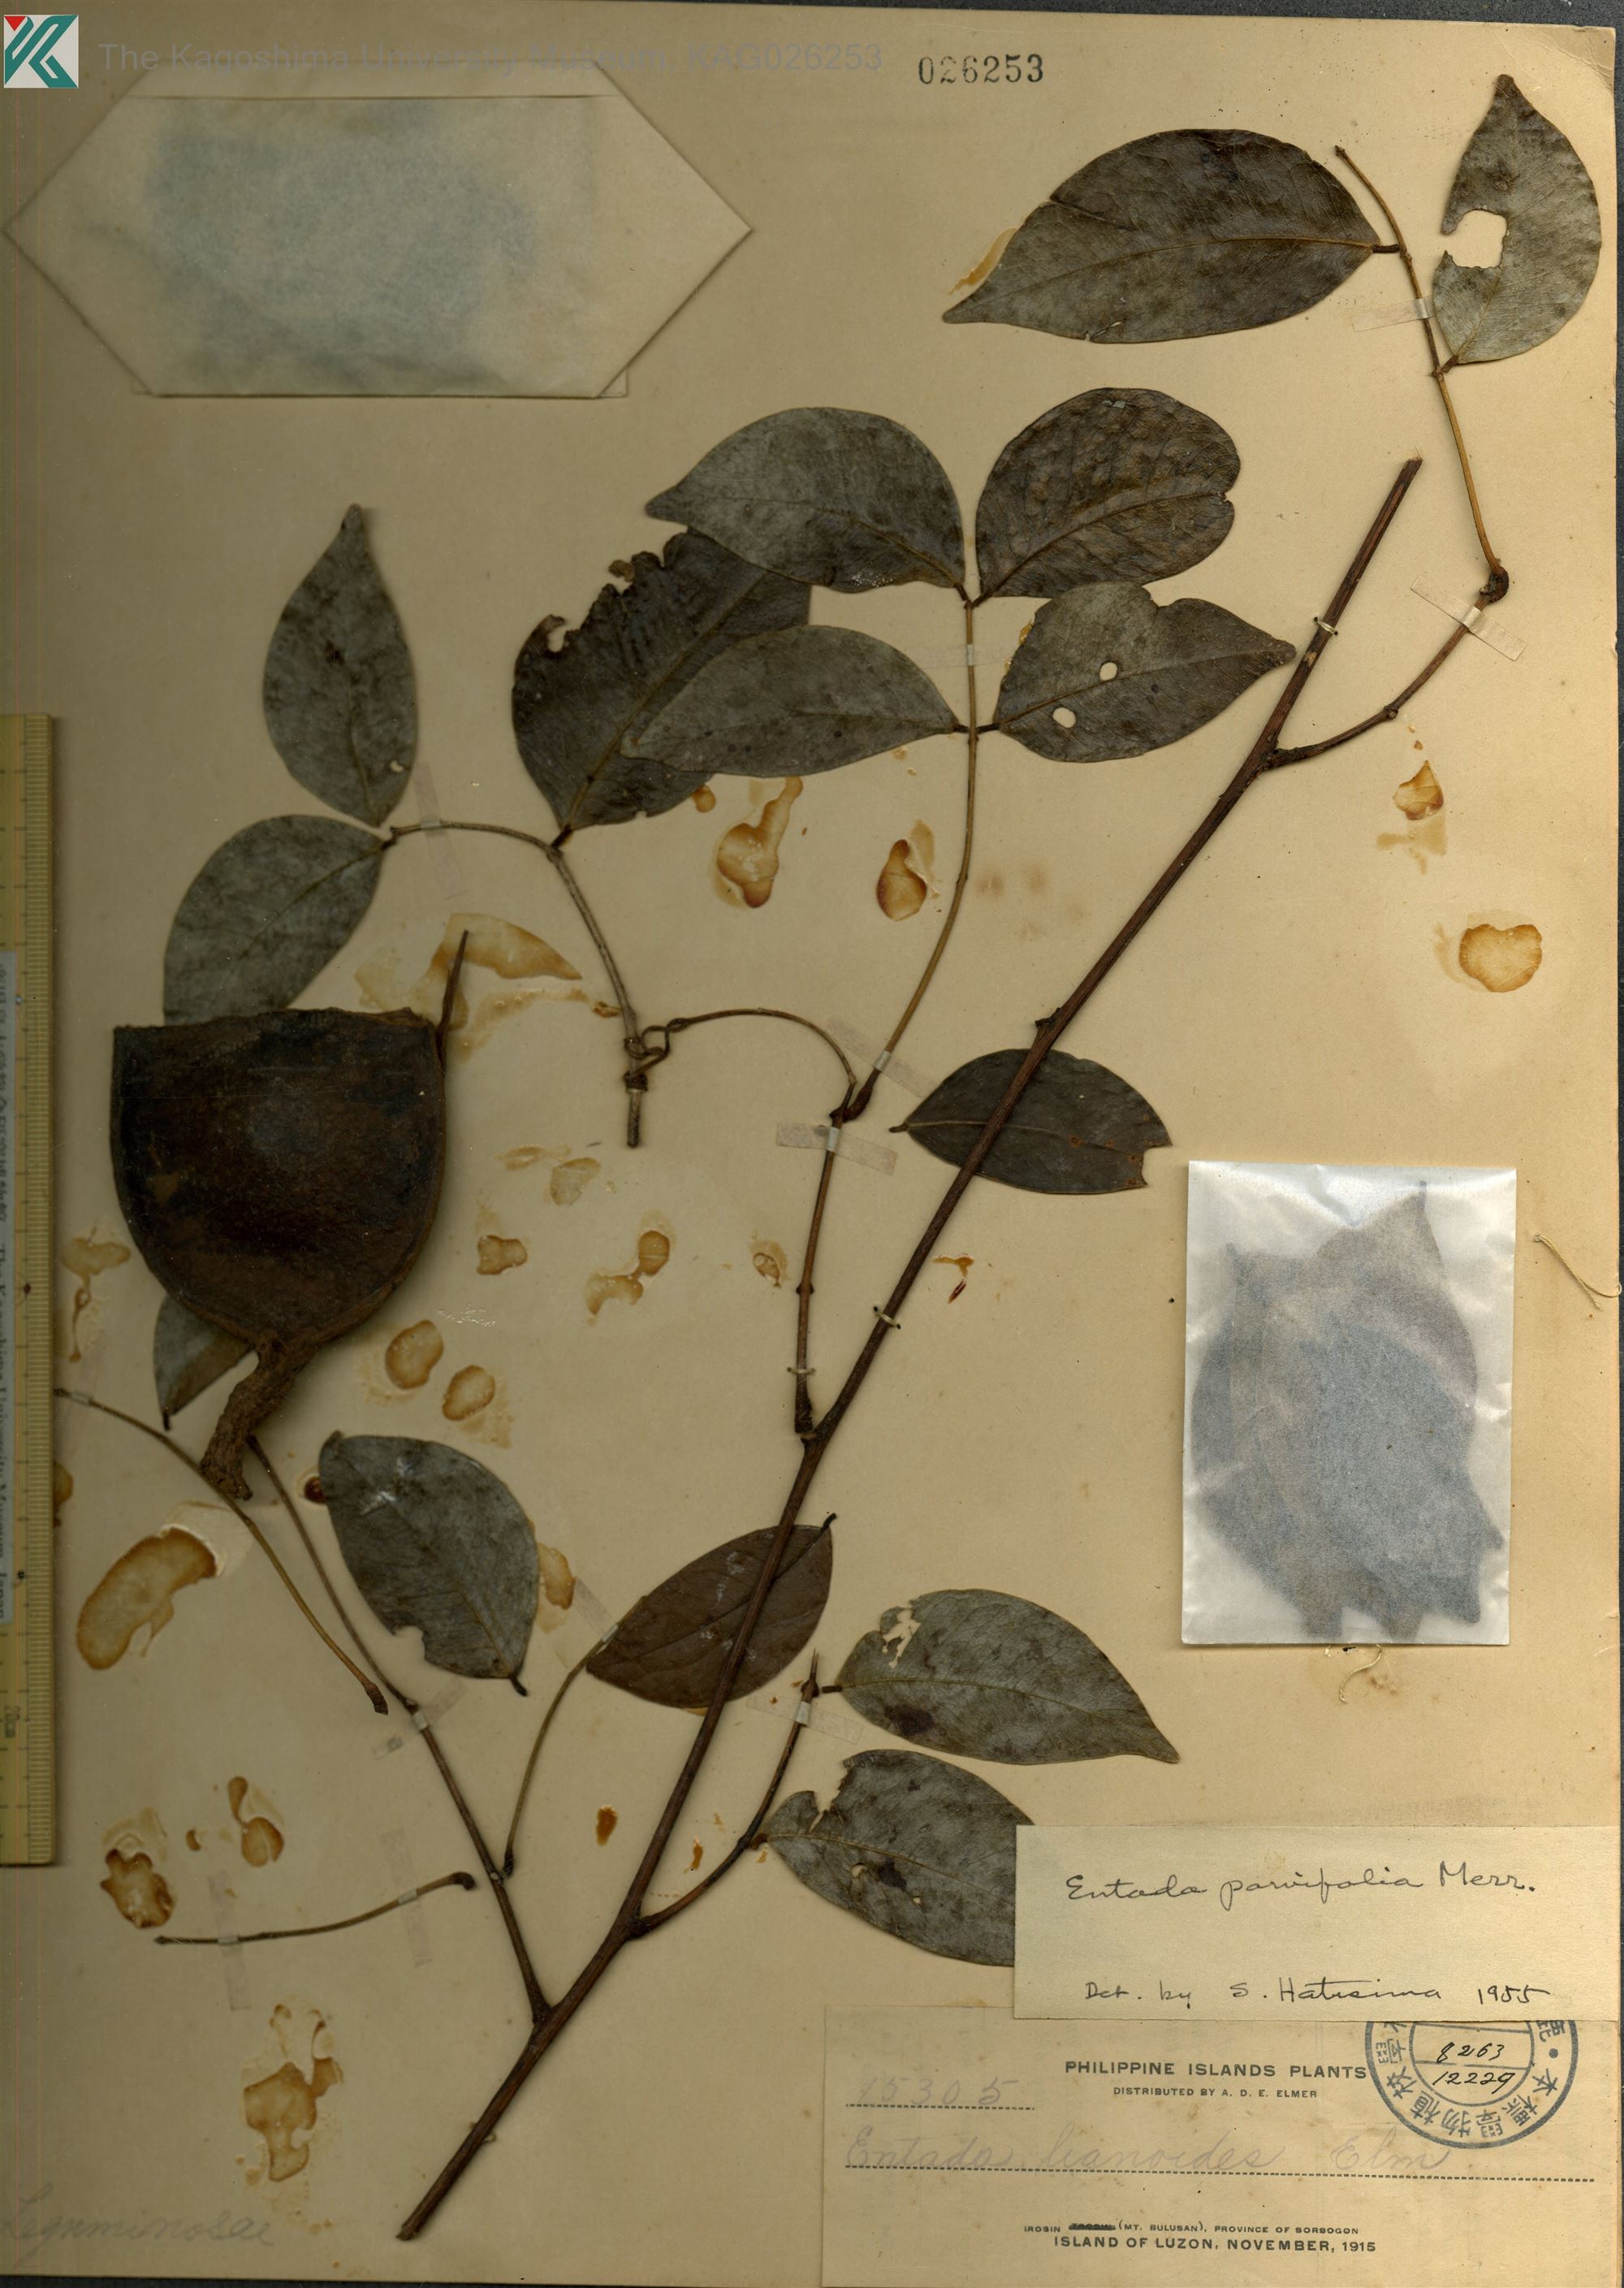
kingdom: Plantae
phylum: Tracheophyta
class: Magnoliopsida
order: Fabales
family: Fabaceae
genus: Entada
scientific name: Entada parvifolia
